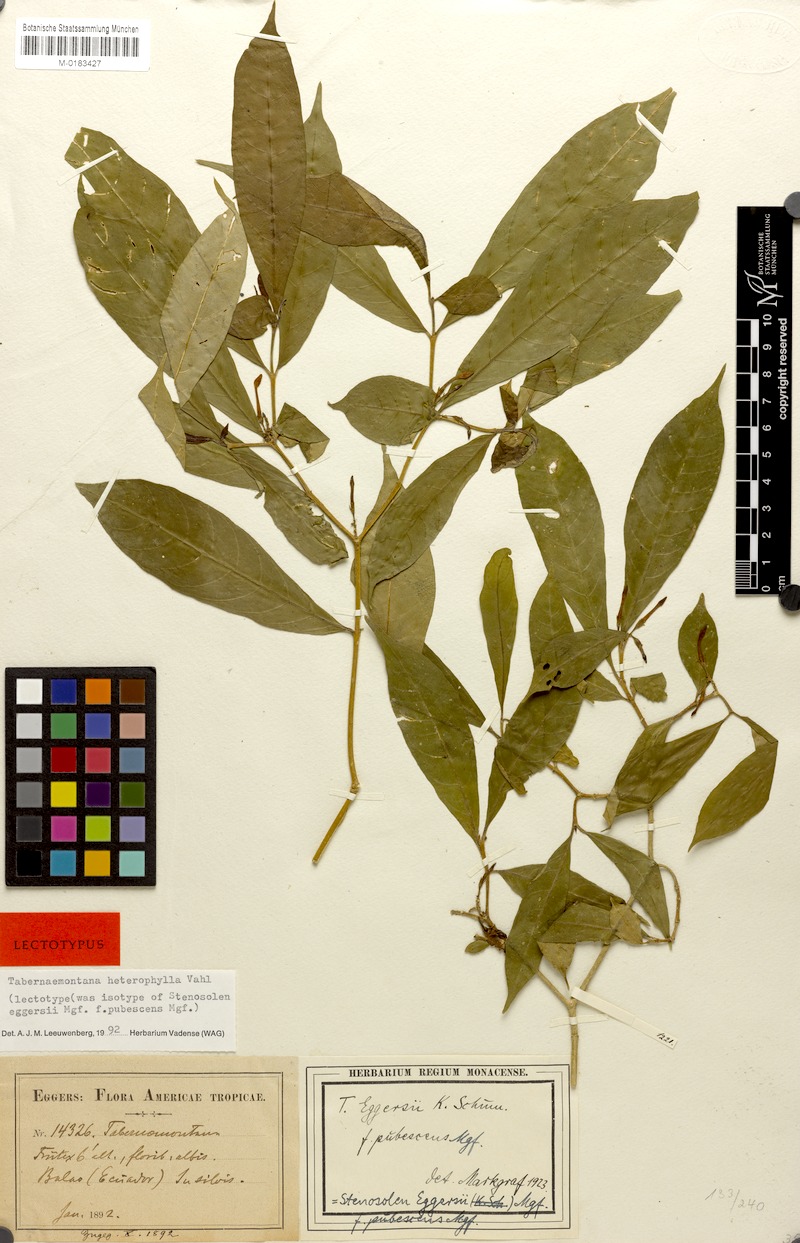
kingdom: Plantae
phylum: Tracheophyta
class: Magnoliopsida
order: Gentianales
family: Apocynaceae
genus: Tabernaemontana
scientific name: Tabernaemontana heterophylla
